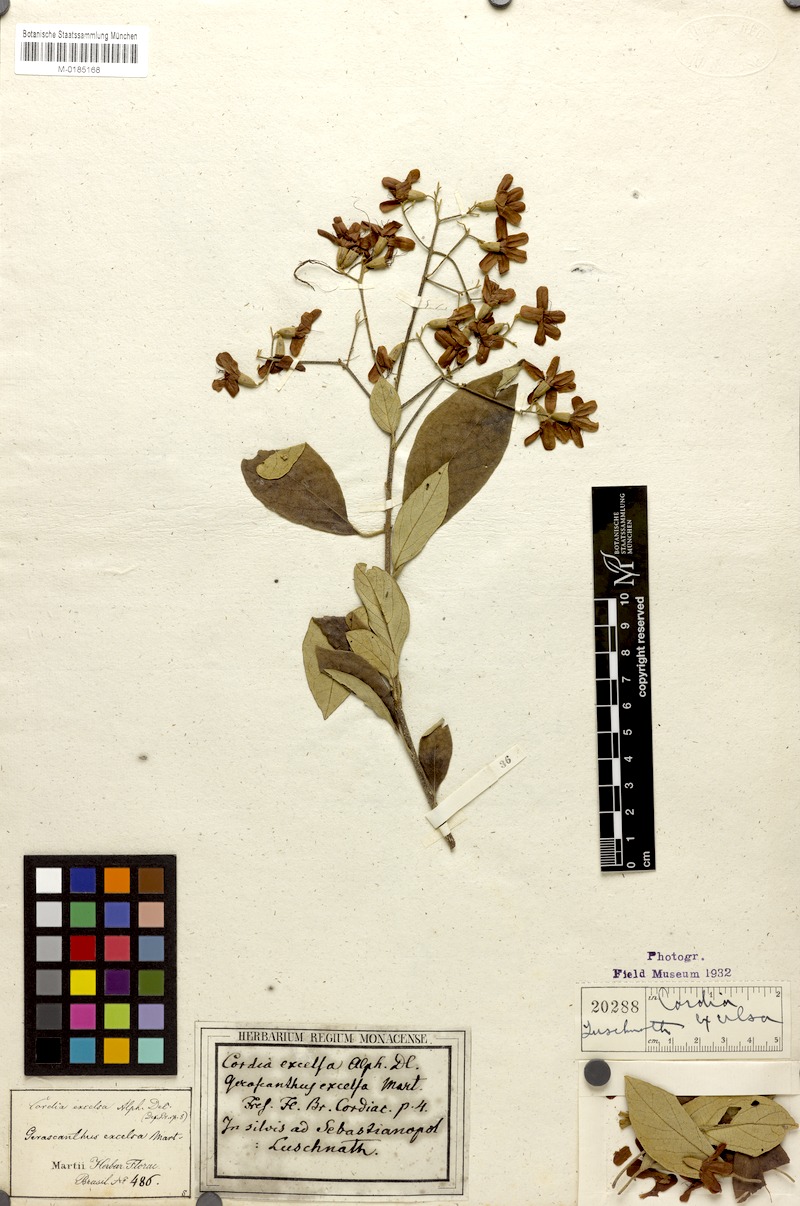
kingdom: Plantae
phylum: Tracheophyta
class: Magnoliopsida
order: Boraginales
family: Cordiaceae
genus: Cordia
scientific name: Cordia trichotoma
